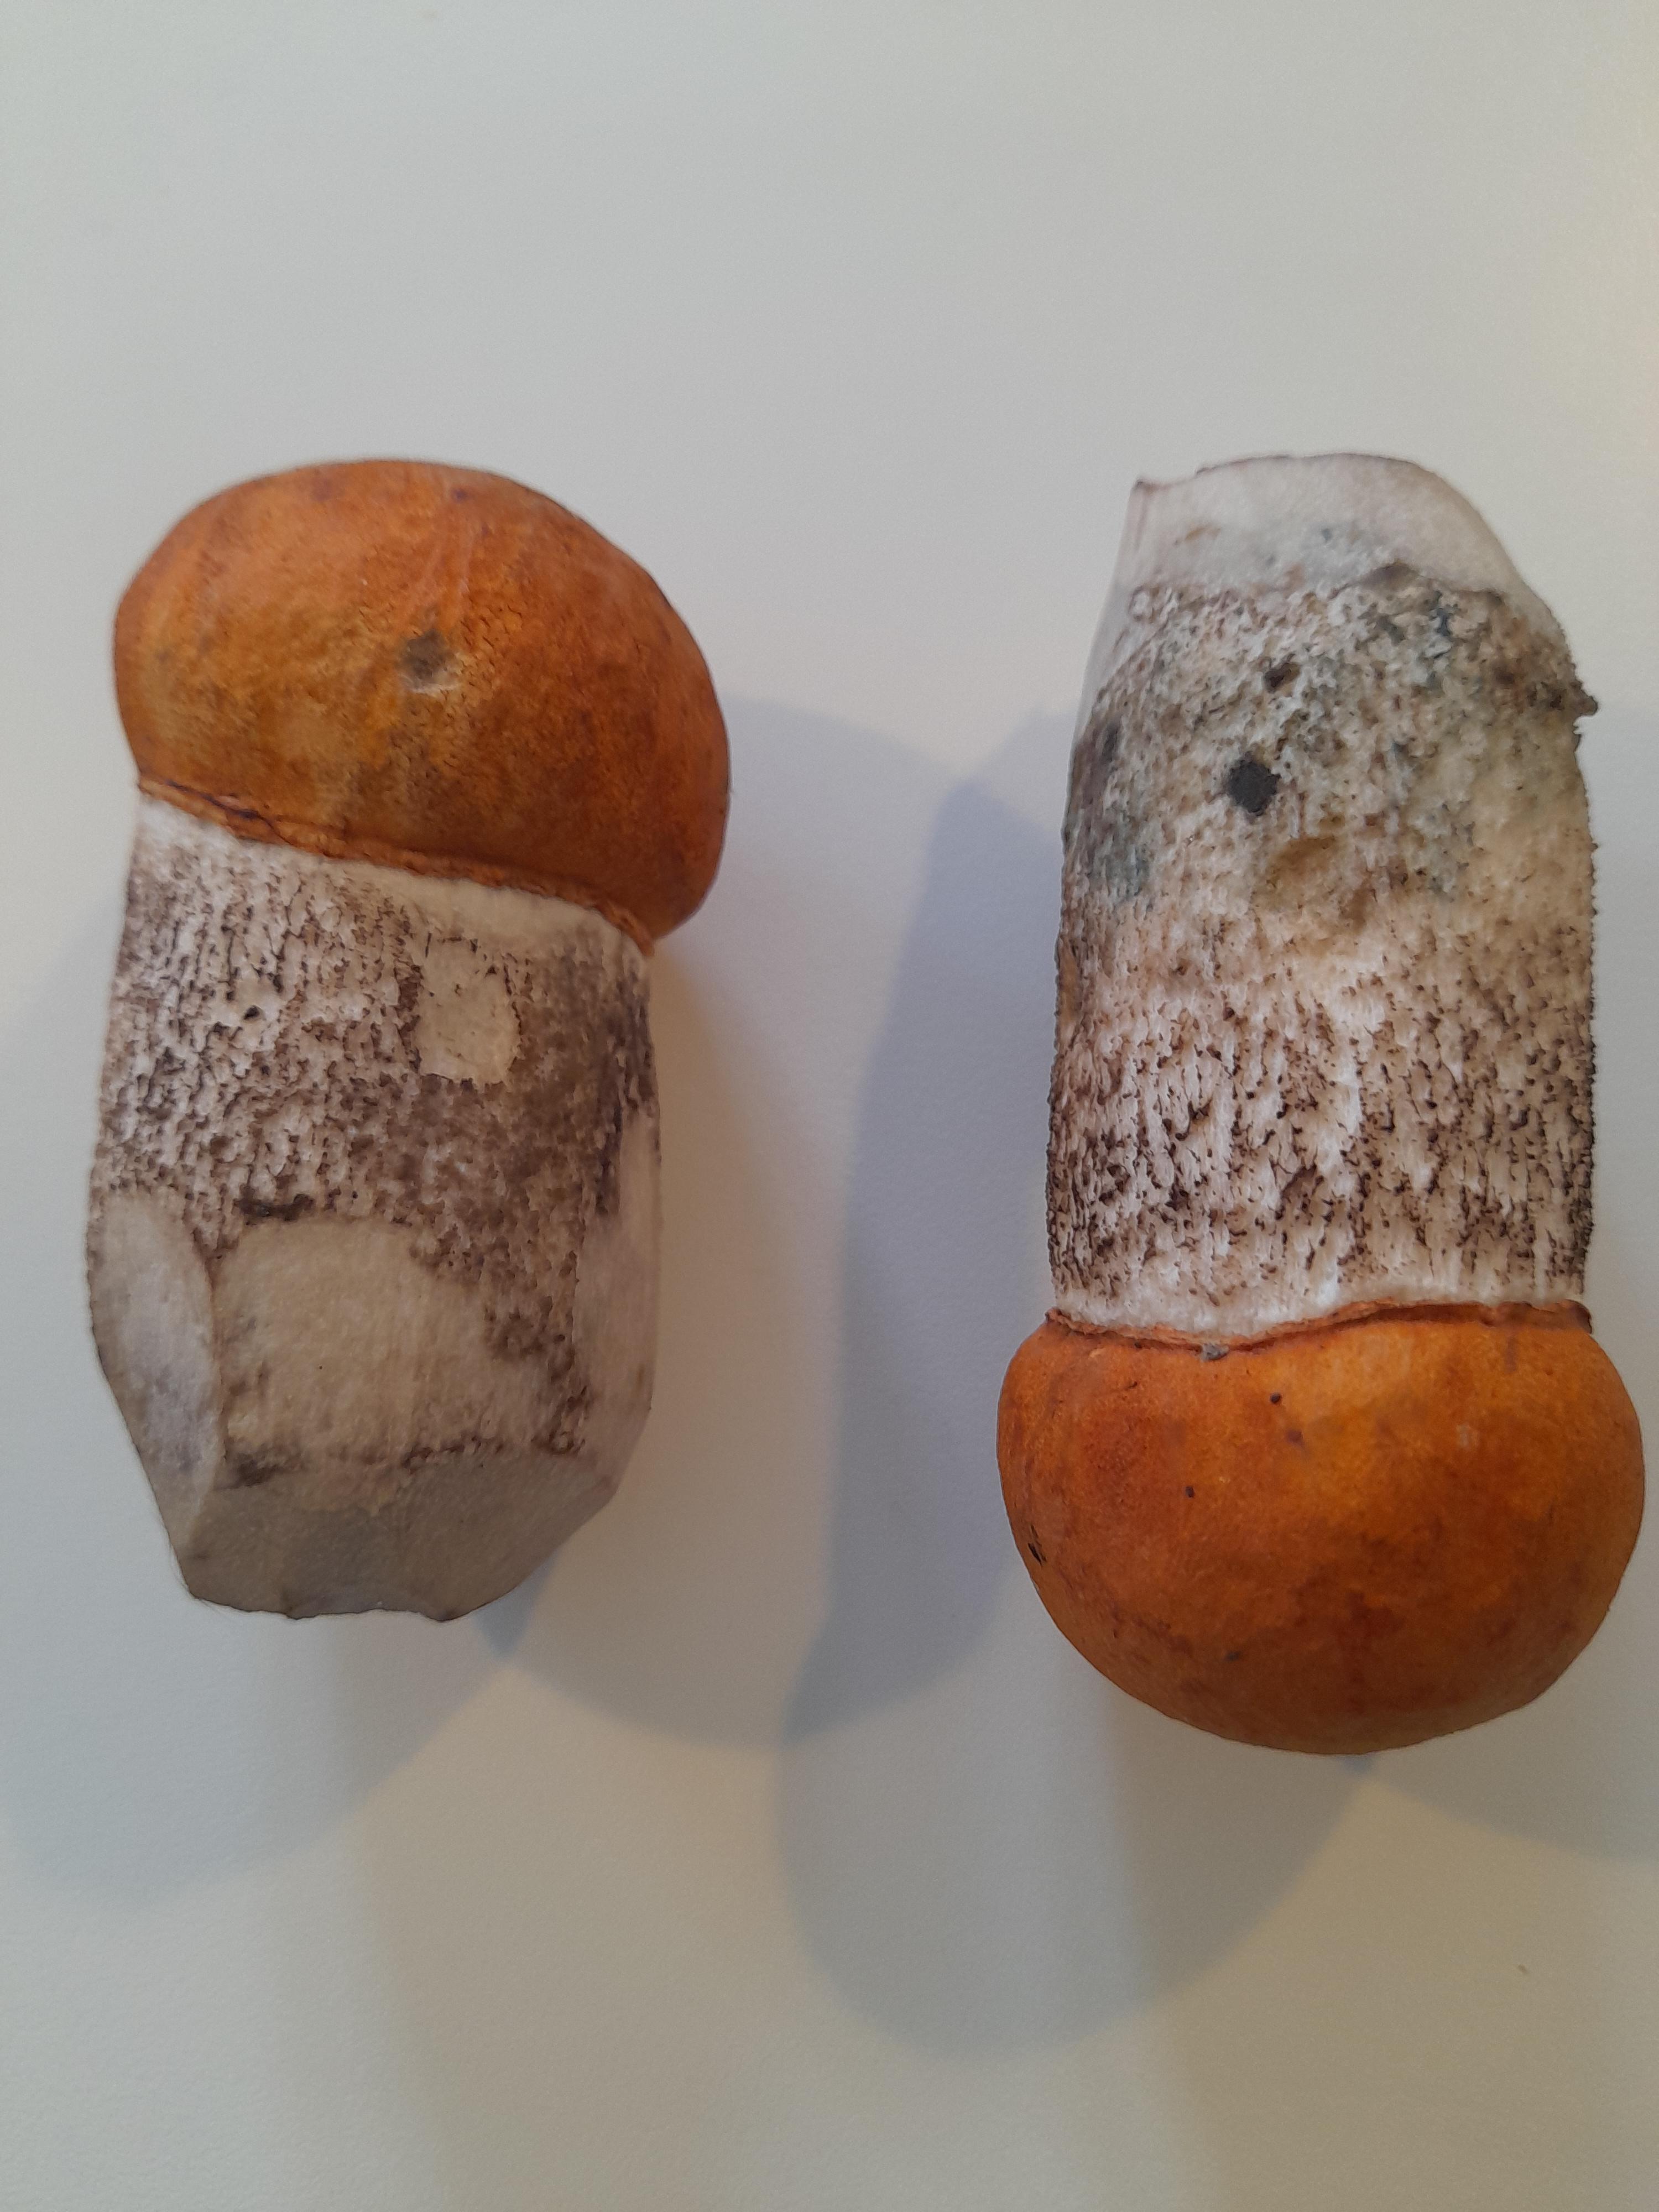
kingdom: Fungi
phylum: Basidiomycota
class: Agaricomycetes
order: Boletales
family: Boletaceae
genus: Leccinum
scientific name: Leccinum aurantiacum
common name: rustrød skælrørhat
